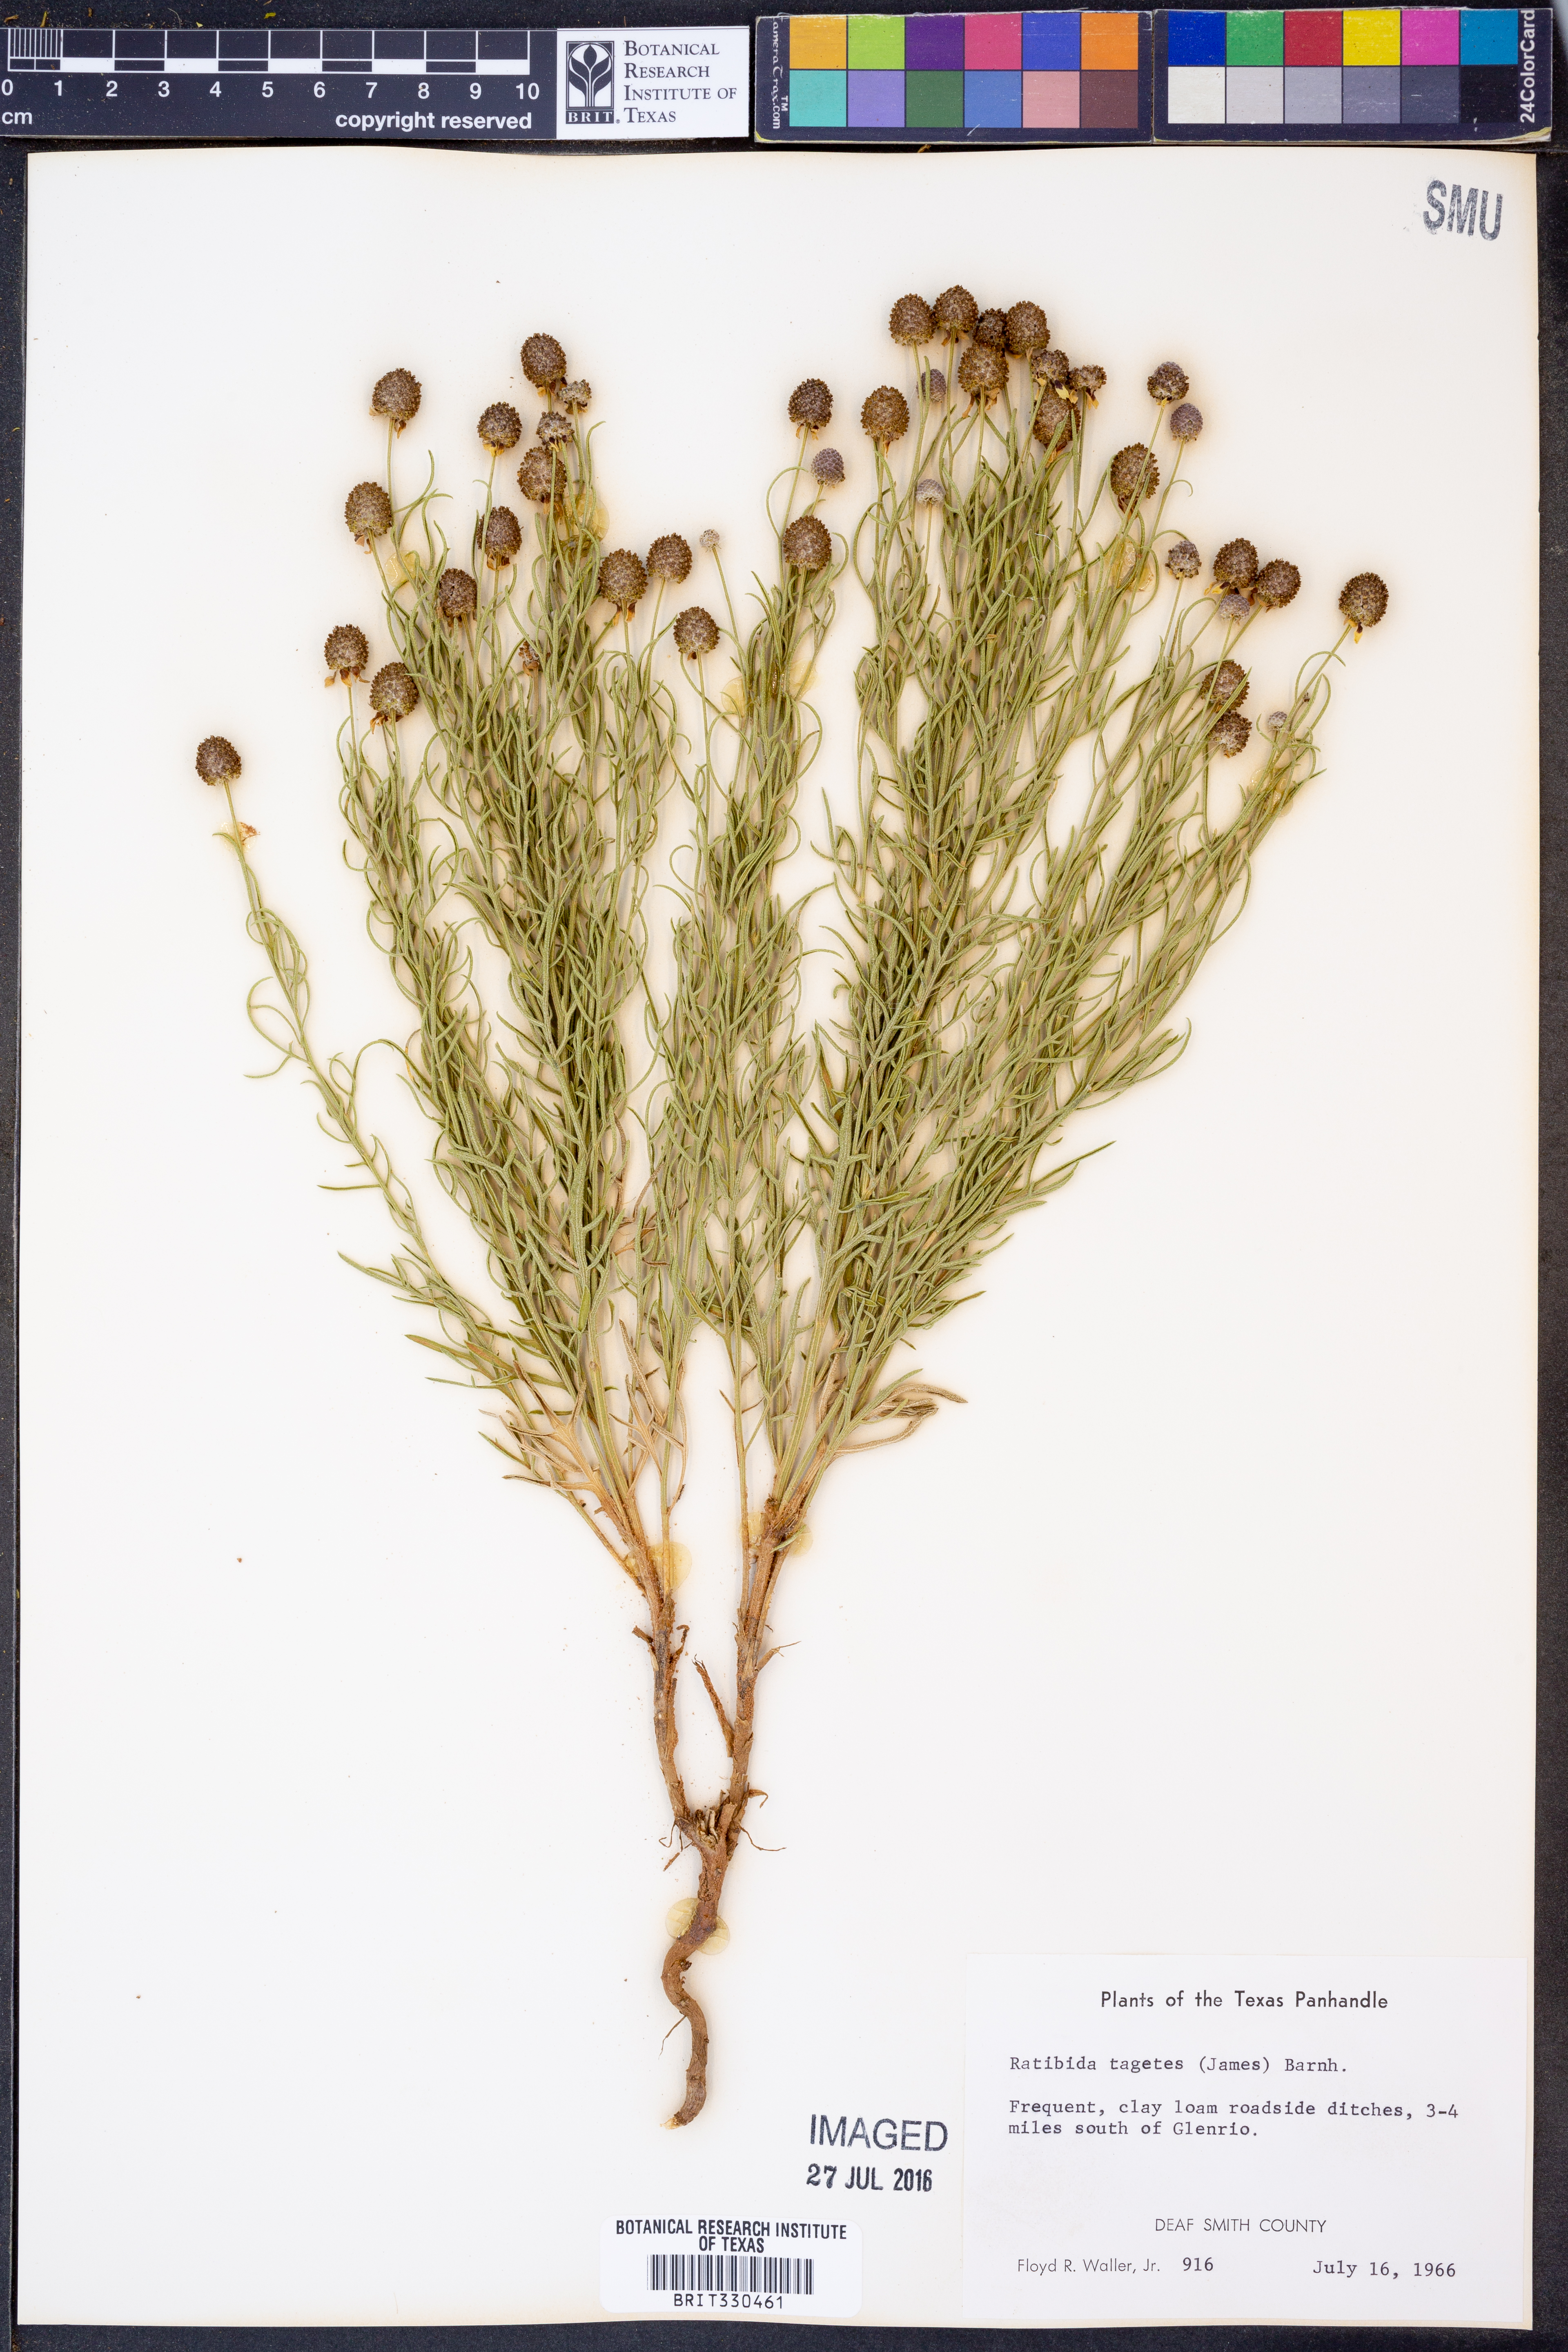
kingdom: Plantae
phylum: Tracheophyta
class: Magnoliopsida
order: Asterales
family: Asteraceae
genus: Ratibida
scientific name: Ratibida tagetes
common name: Green mexican-hat
